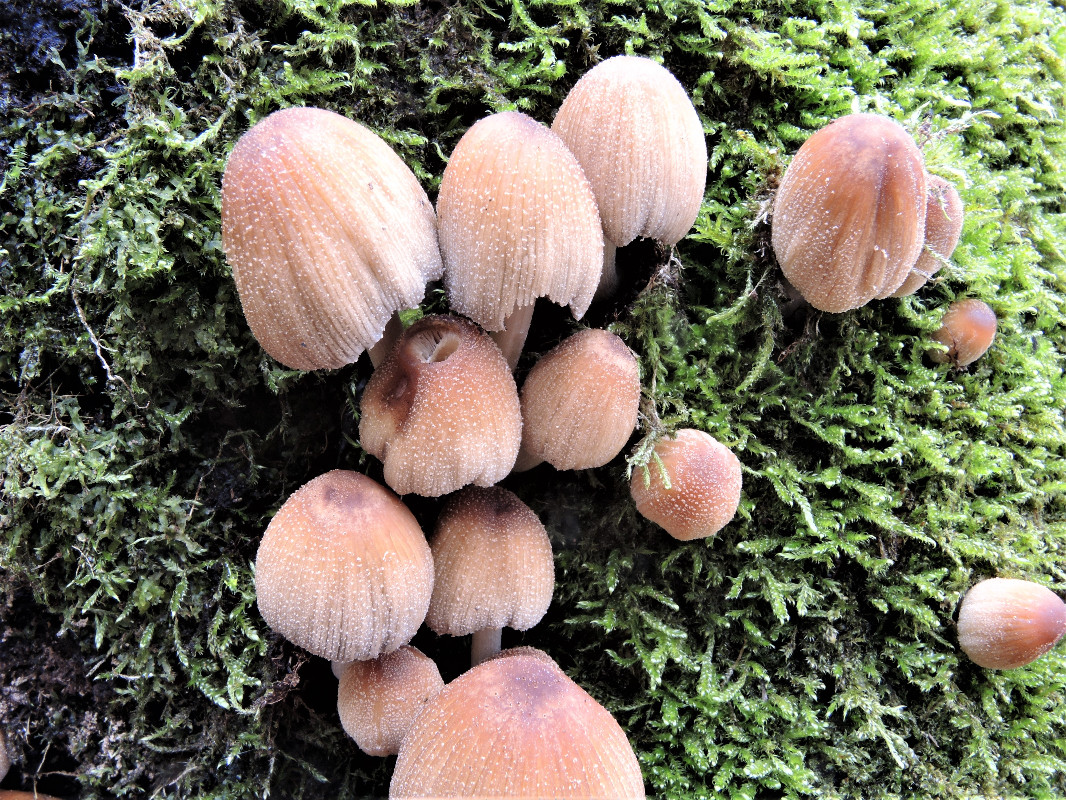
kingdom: Fungi
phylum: Basidiomycota
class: Agaricomycetes
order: Agaricales
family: Psathyrellaceae
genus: Coprinellus
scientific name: Coprinellus micaceus
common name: glimmer-blækhat
